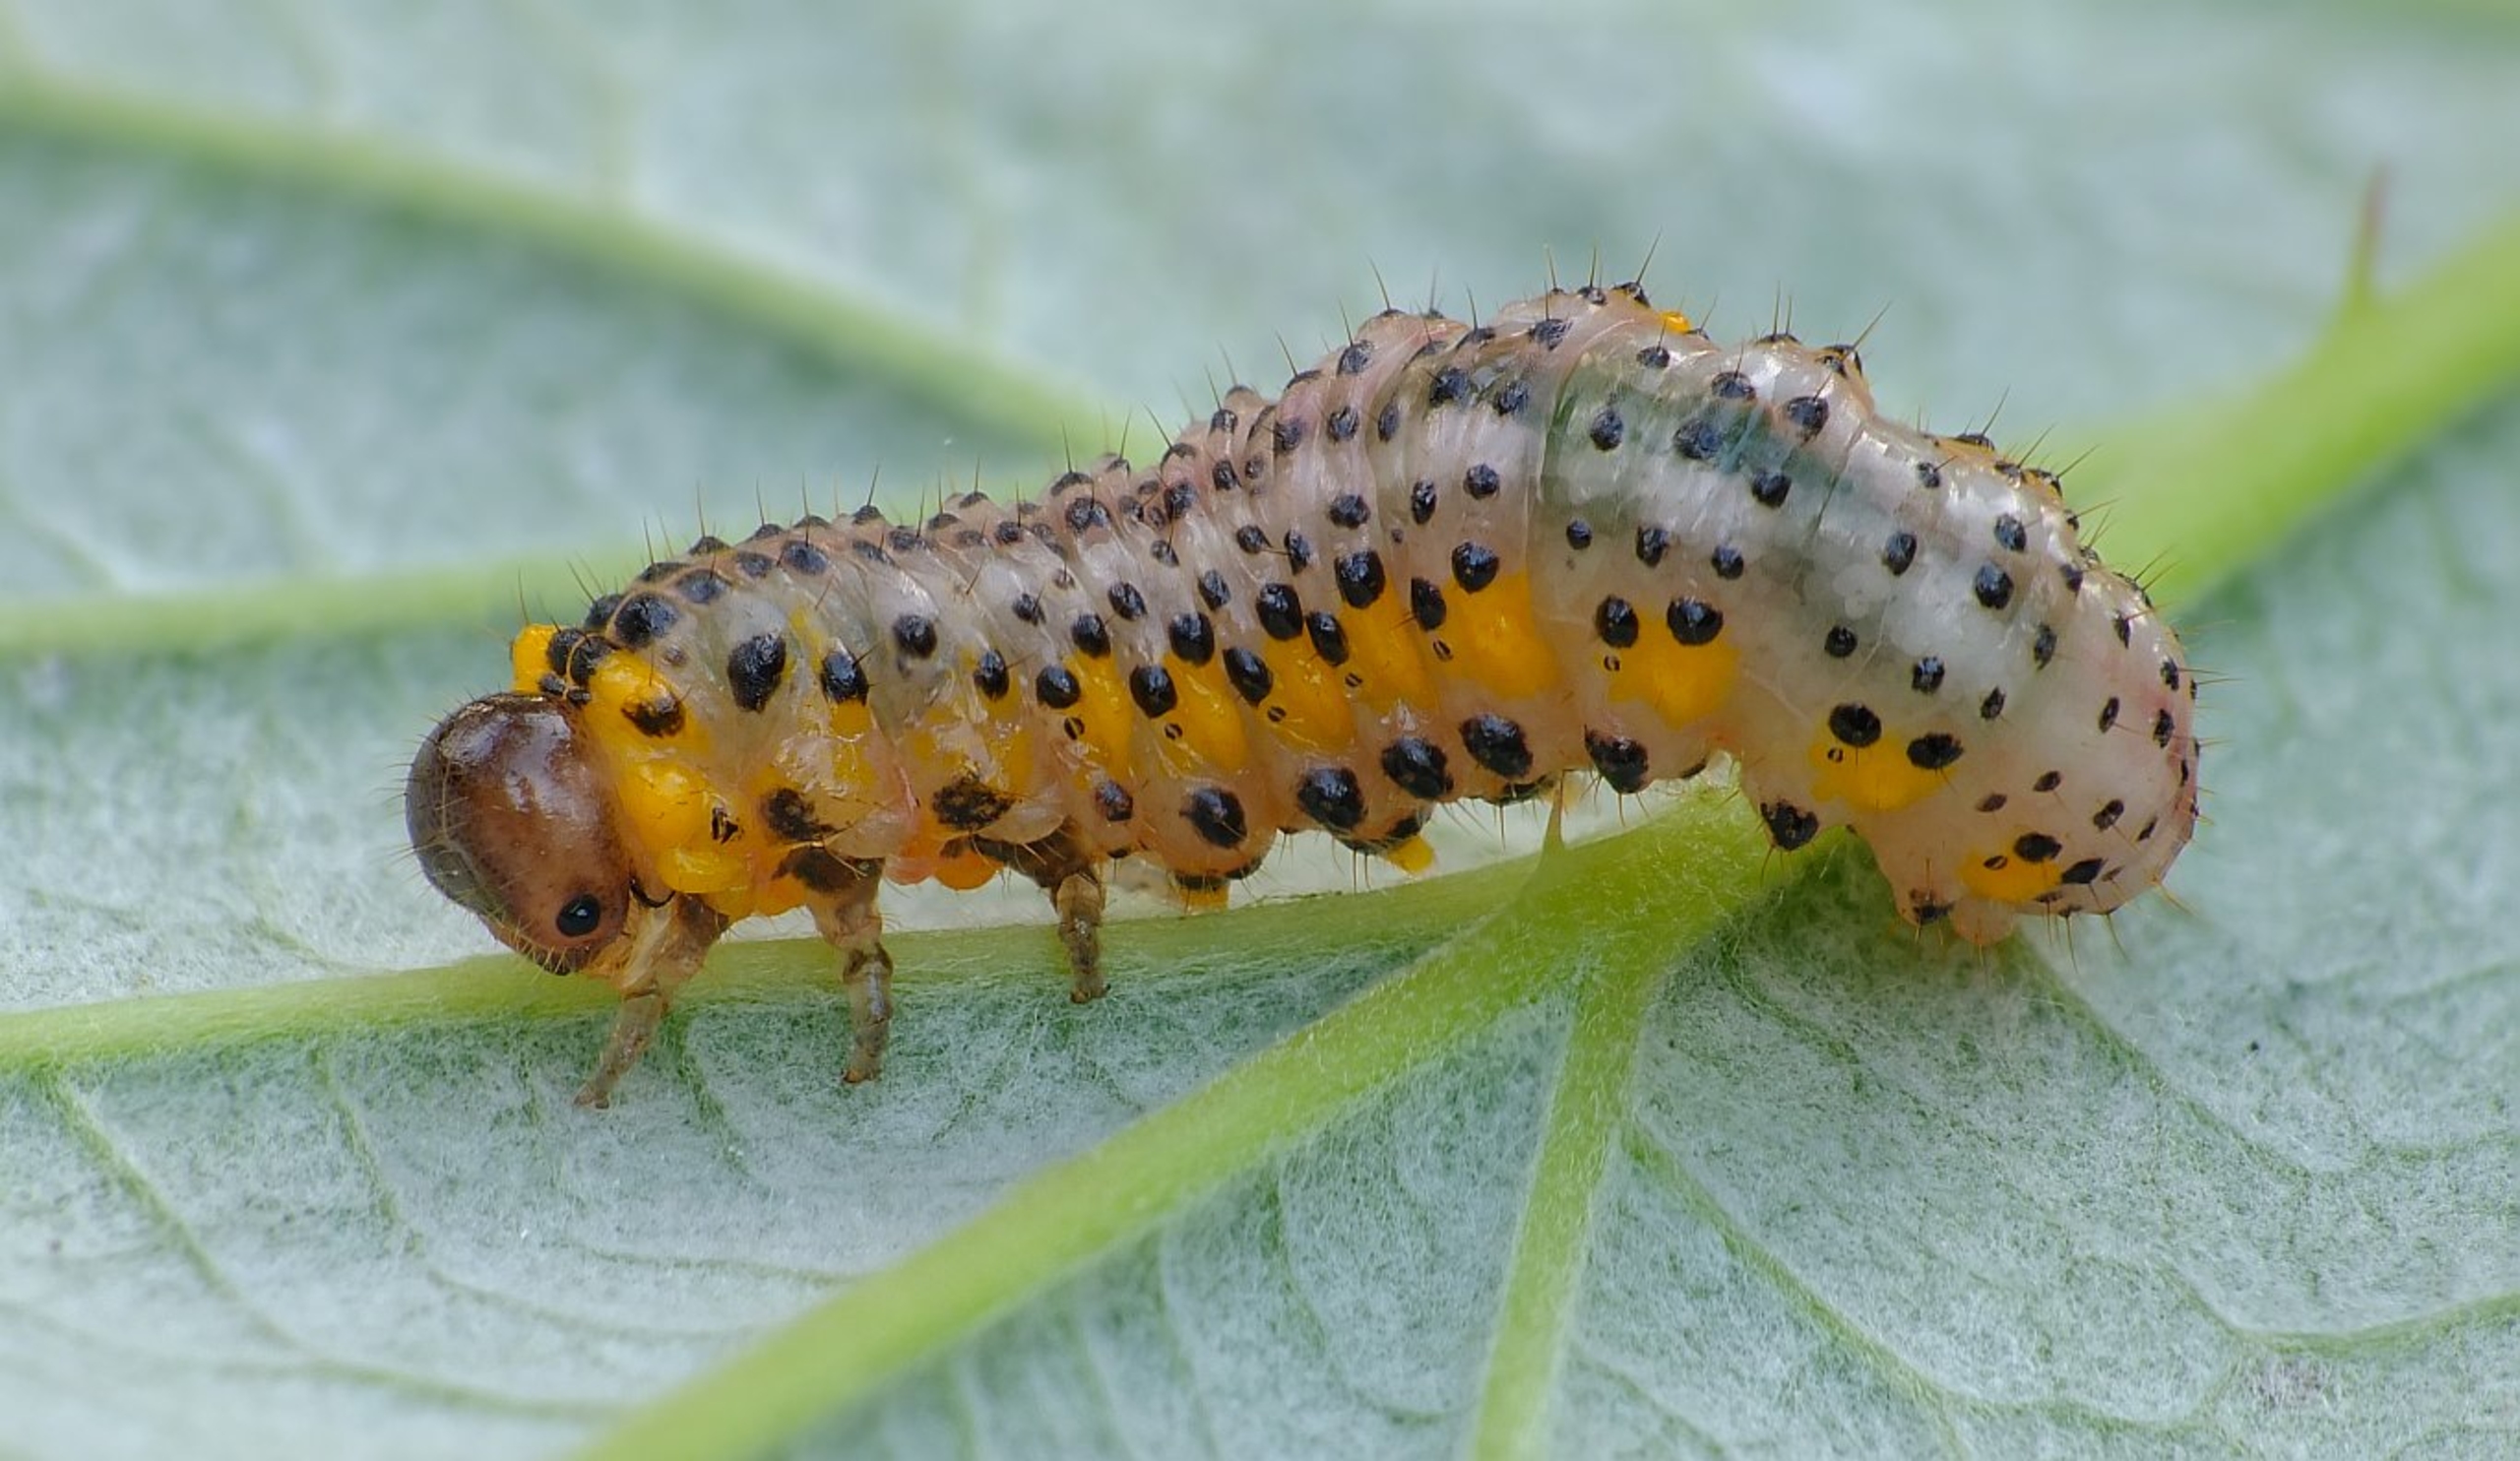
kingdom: Animalia
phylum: Arthropoda
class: Insecta
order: Hymenoptera
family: Argidae
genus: Arge
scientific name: Arge gracilicornis
